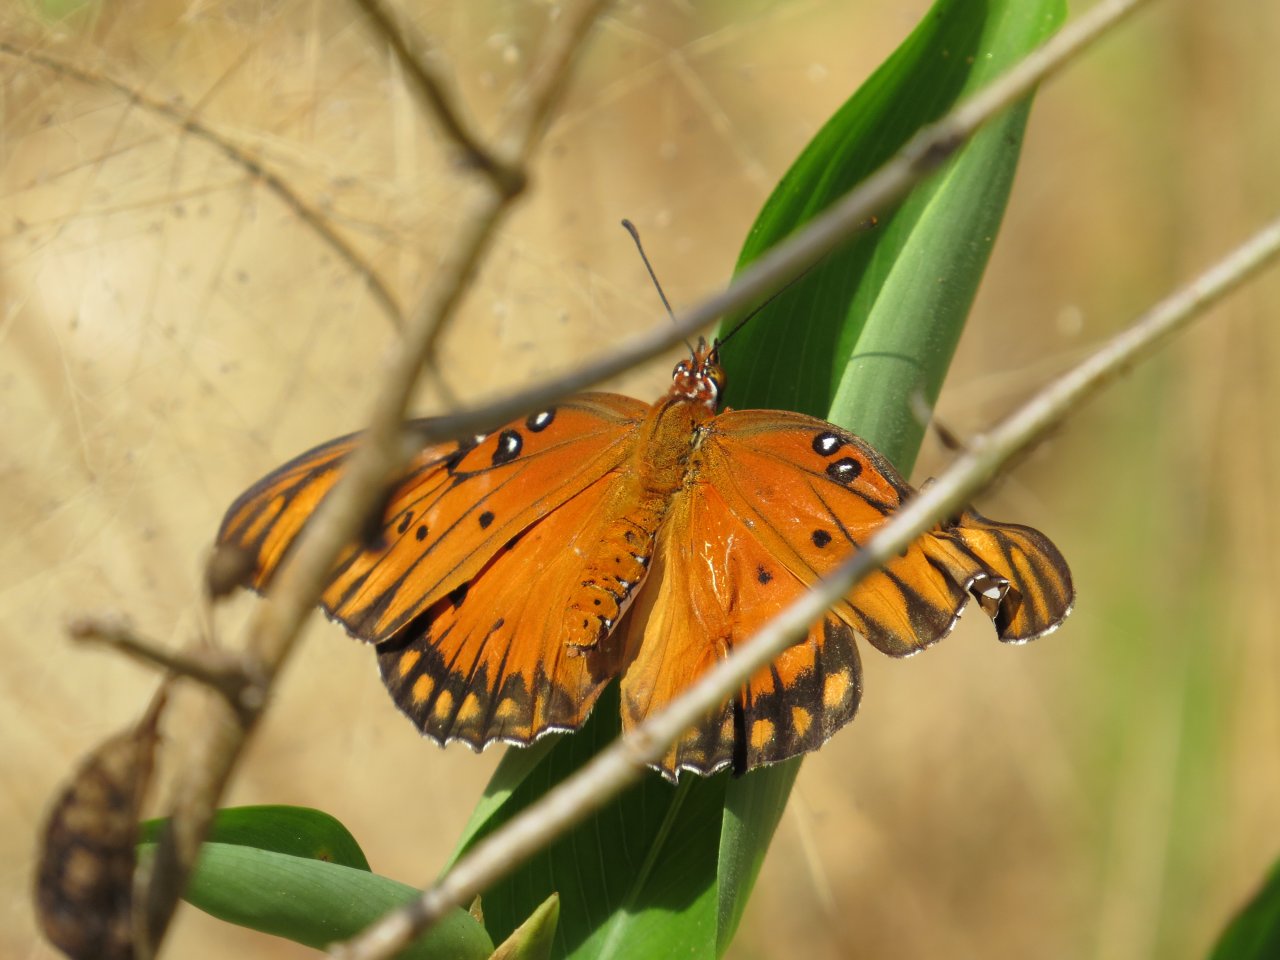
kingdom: Animalia
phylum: Arthropoda
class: Insecta
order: Lepidoptera
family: Nymphalidae
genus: Dione
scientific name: Dione vanillae
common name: Gulf Fritillary
